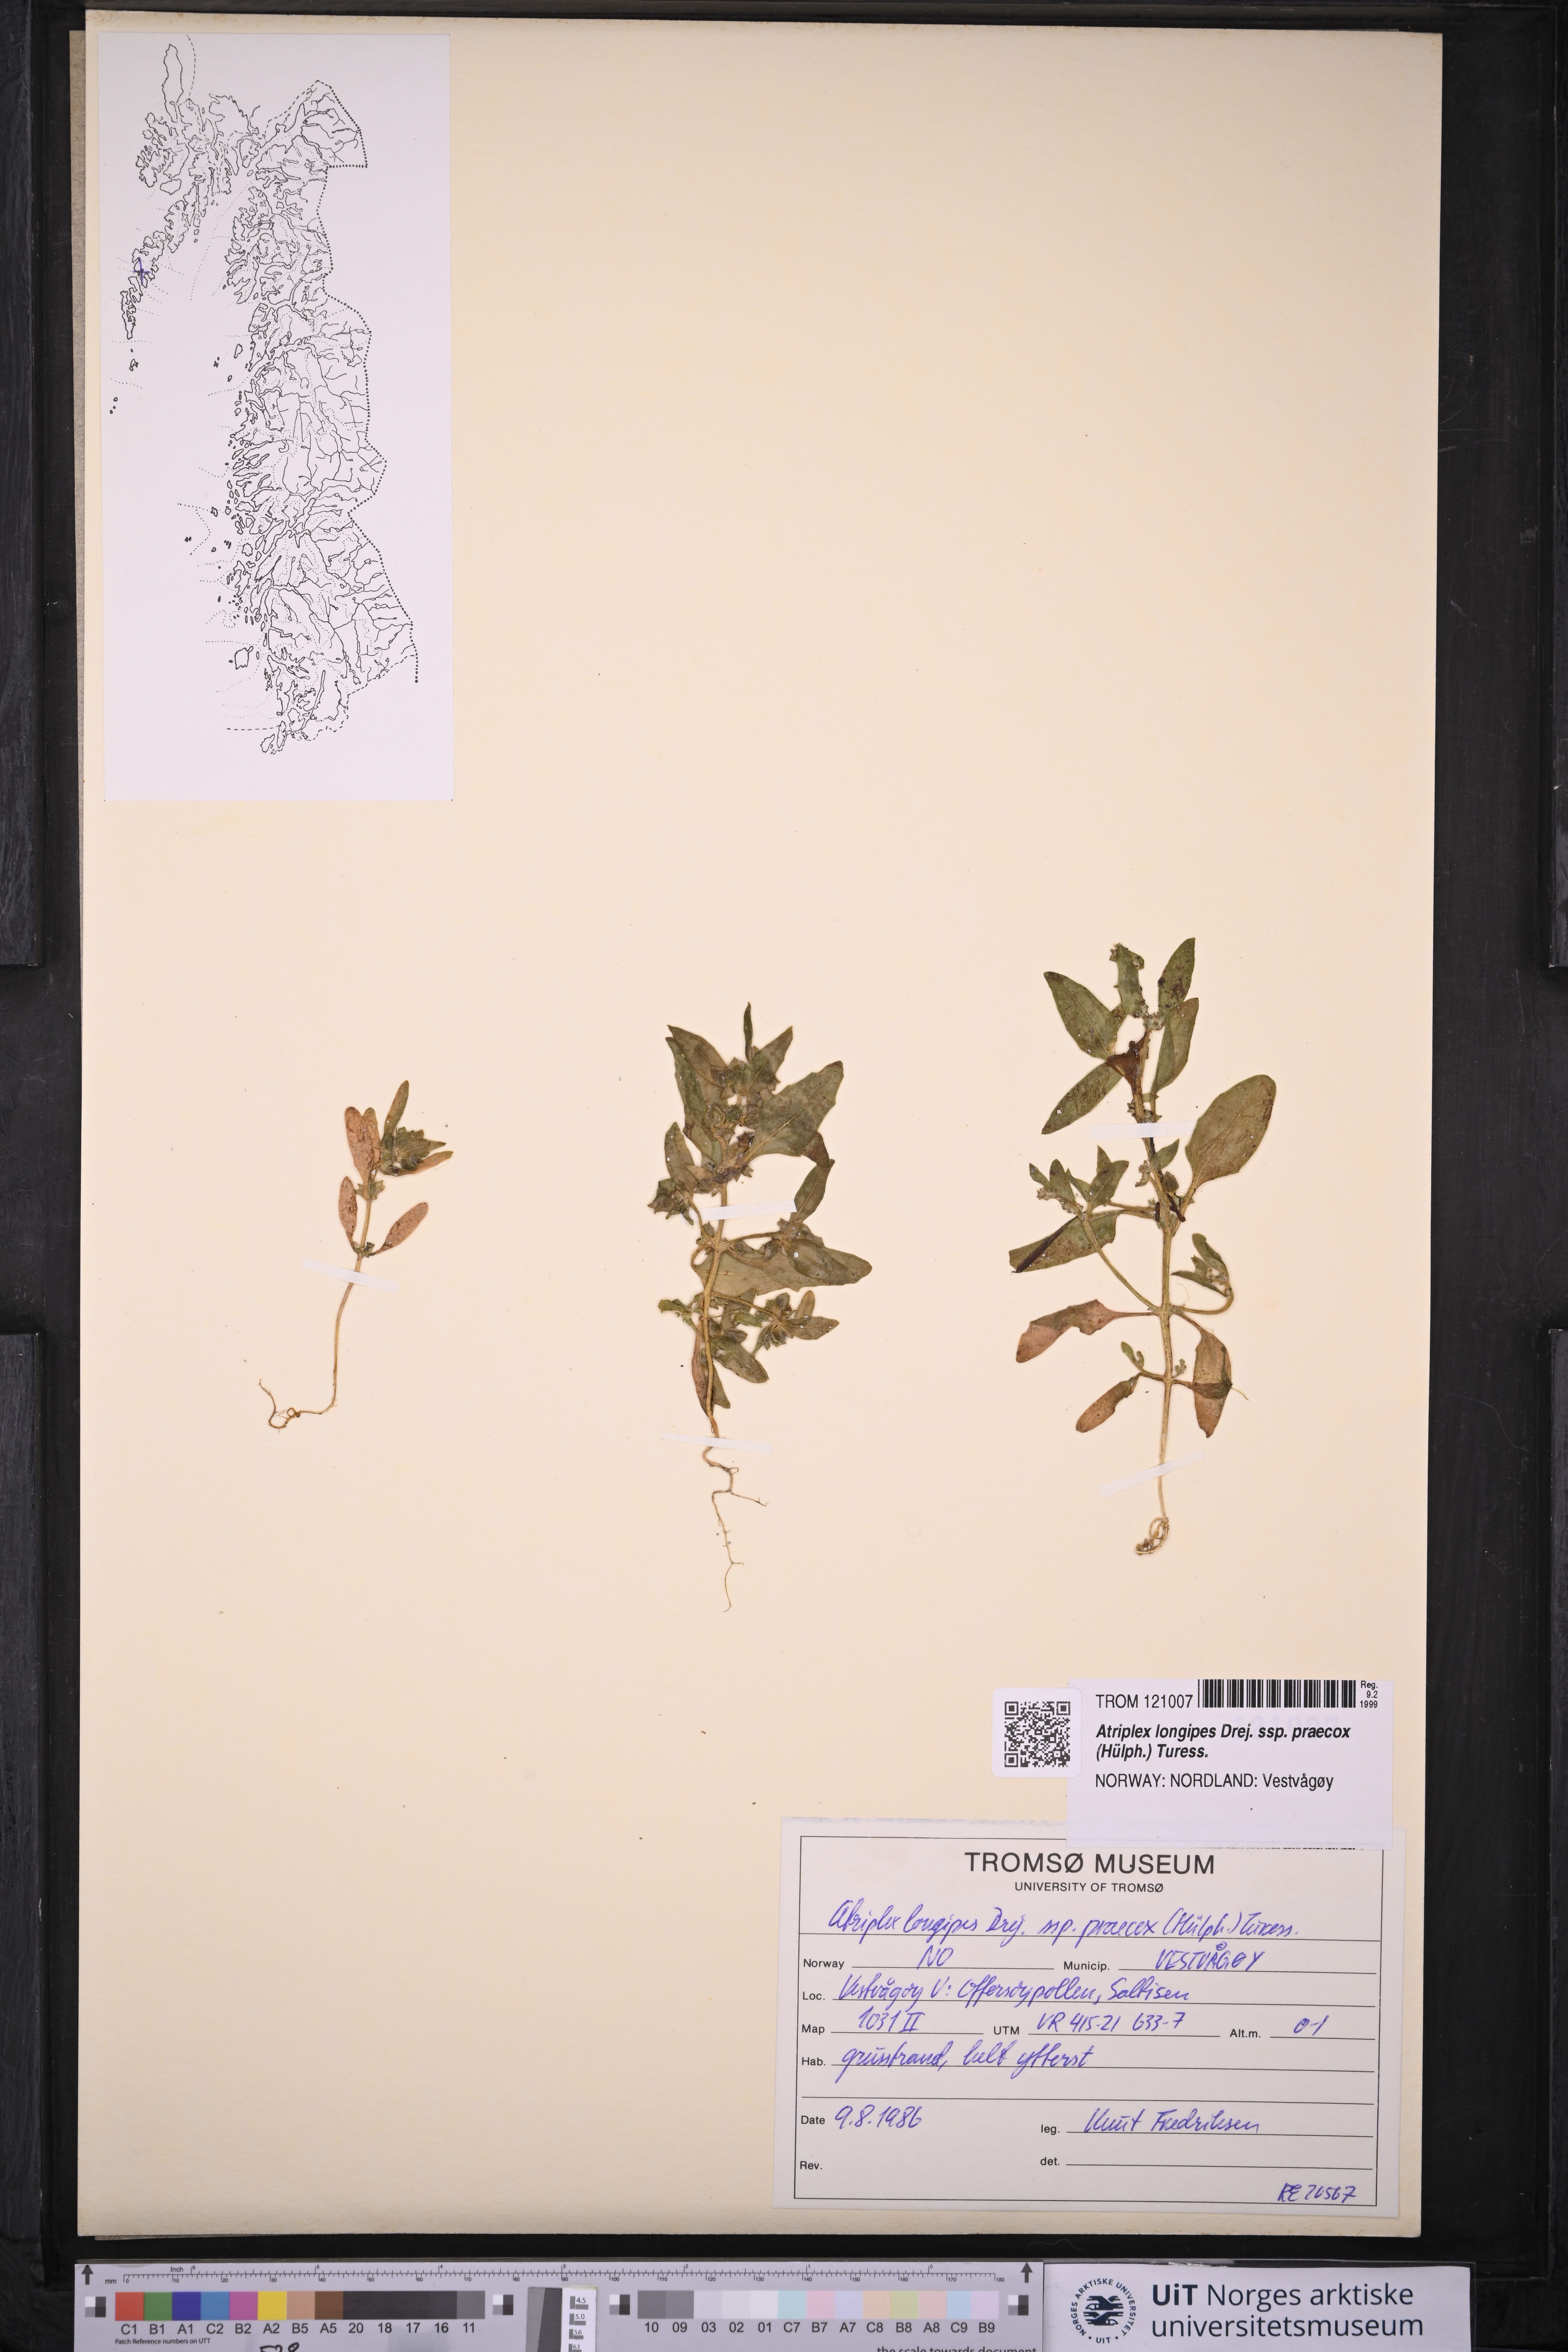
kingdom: Plantae
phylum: Tracheophyta
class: Magnoliopsida
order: Caryophyllales
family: Amaranthaceae
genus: Atriplex
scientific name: Atriplex praecox
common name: Early orache
